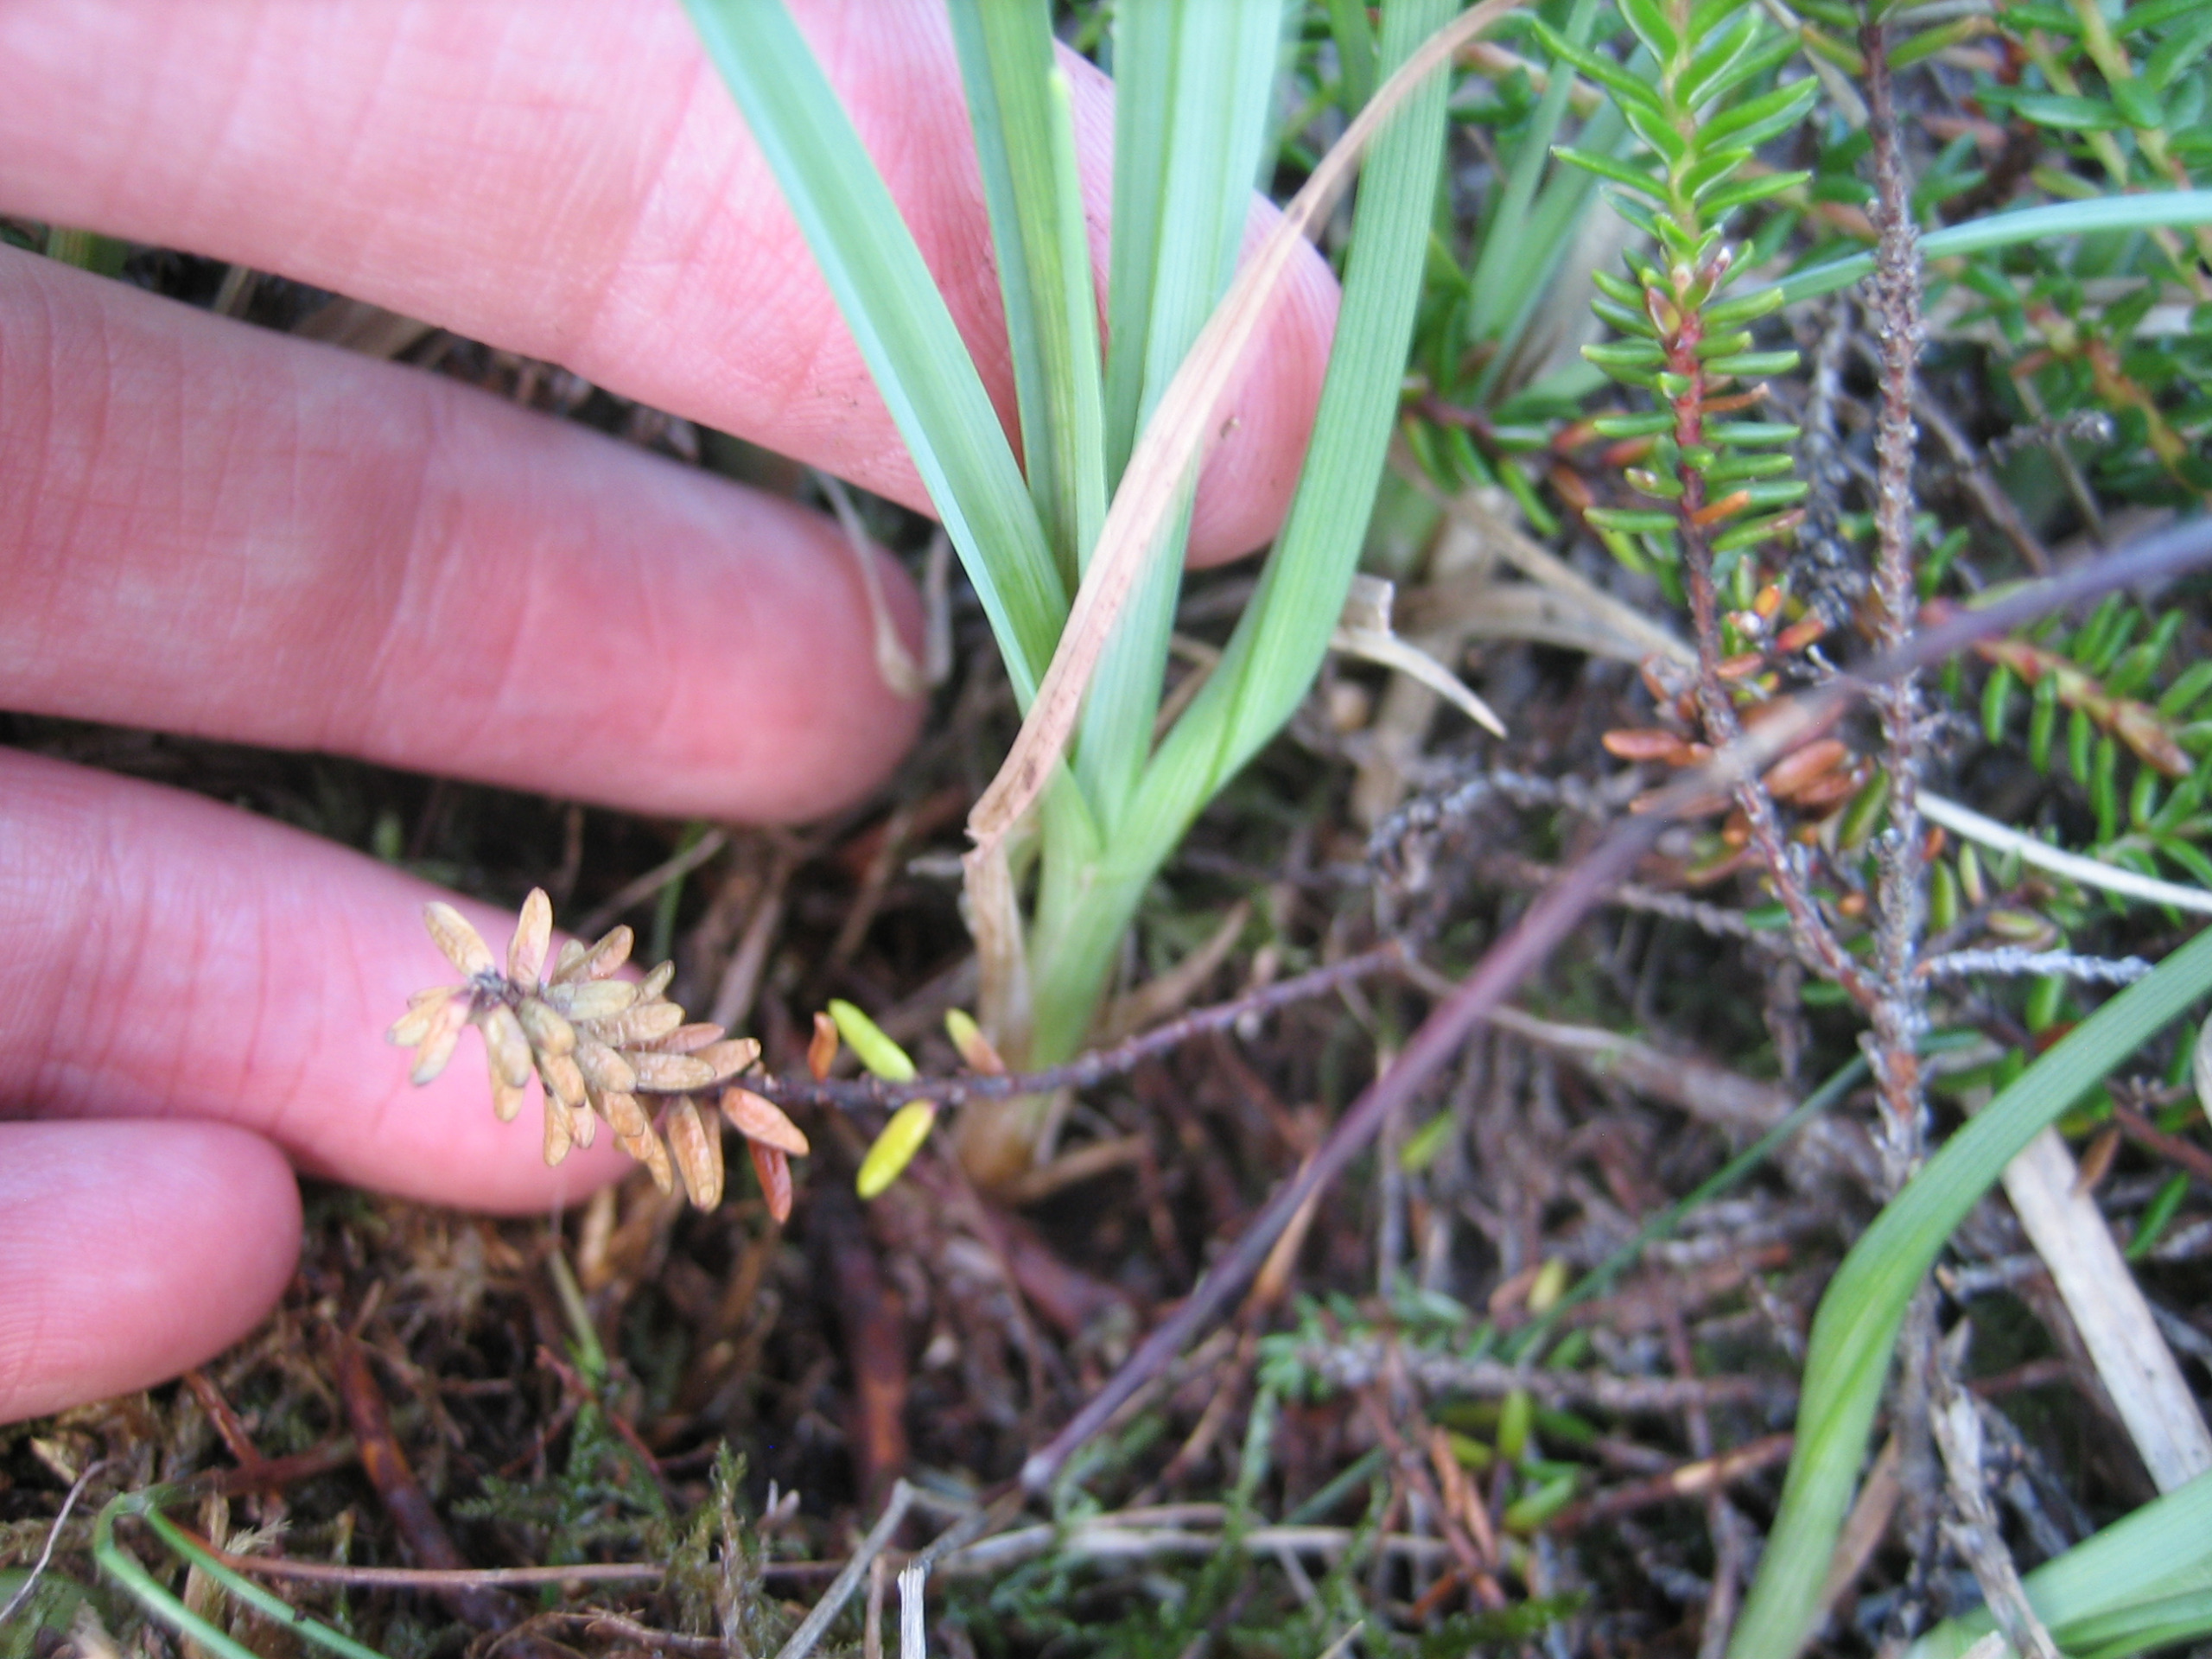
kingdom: Plantae
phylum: Tracheophyta
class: Liliopsida
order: Poales
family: Cyperaceae
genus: Carex
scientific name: Carex panicea
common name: Hirse-star
